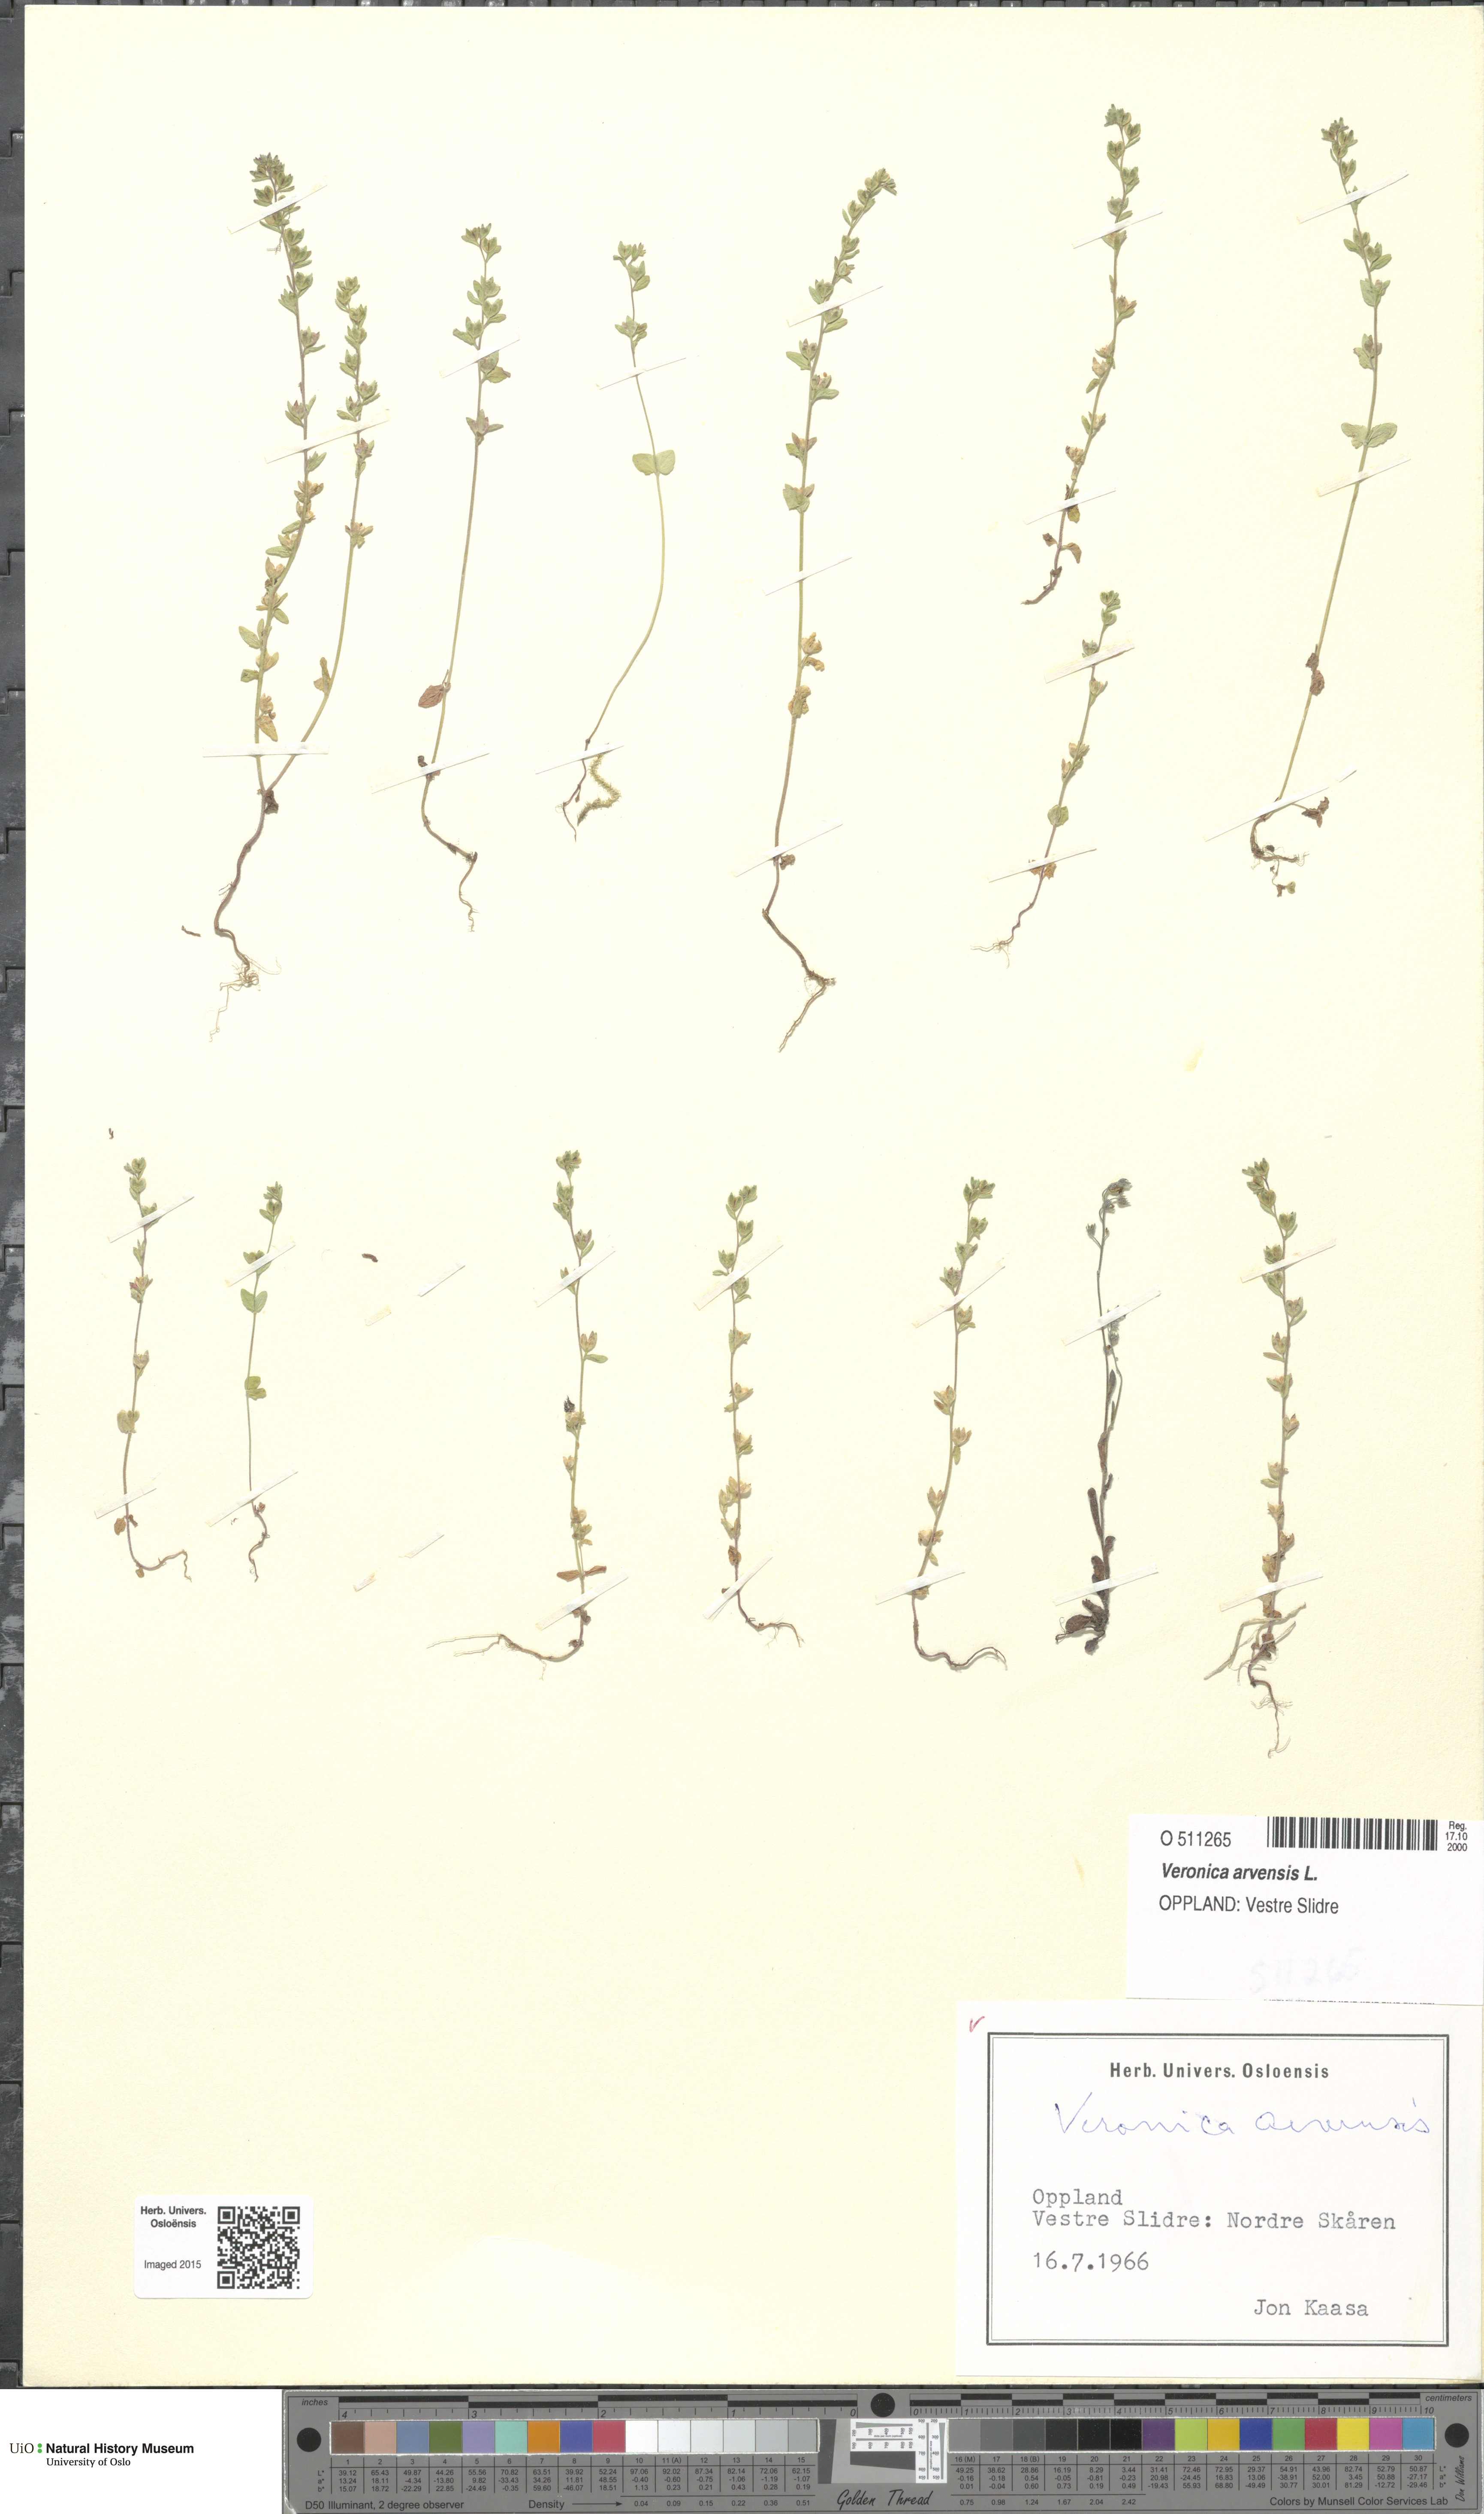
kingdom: Plantae
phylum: Tracheophyta
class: Magnoliopsida
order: Lamiales
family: Plantaginaceae
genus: Veronica
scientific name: Veronica arvensis
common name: Corn speedwell
